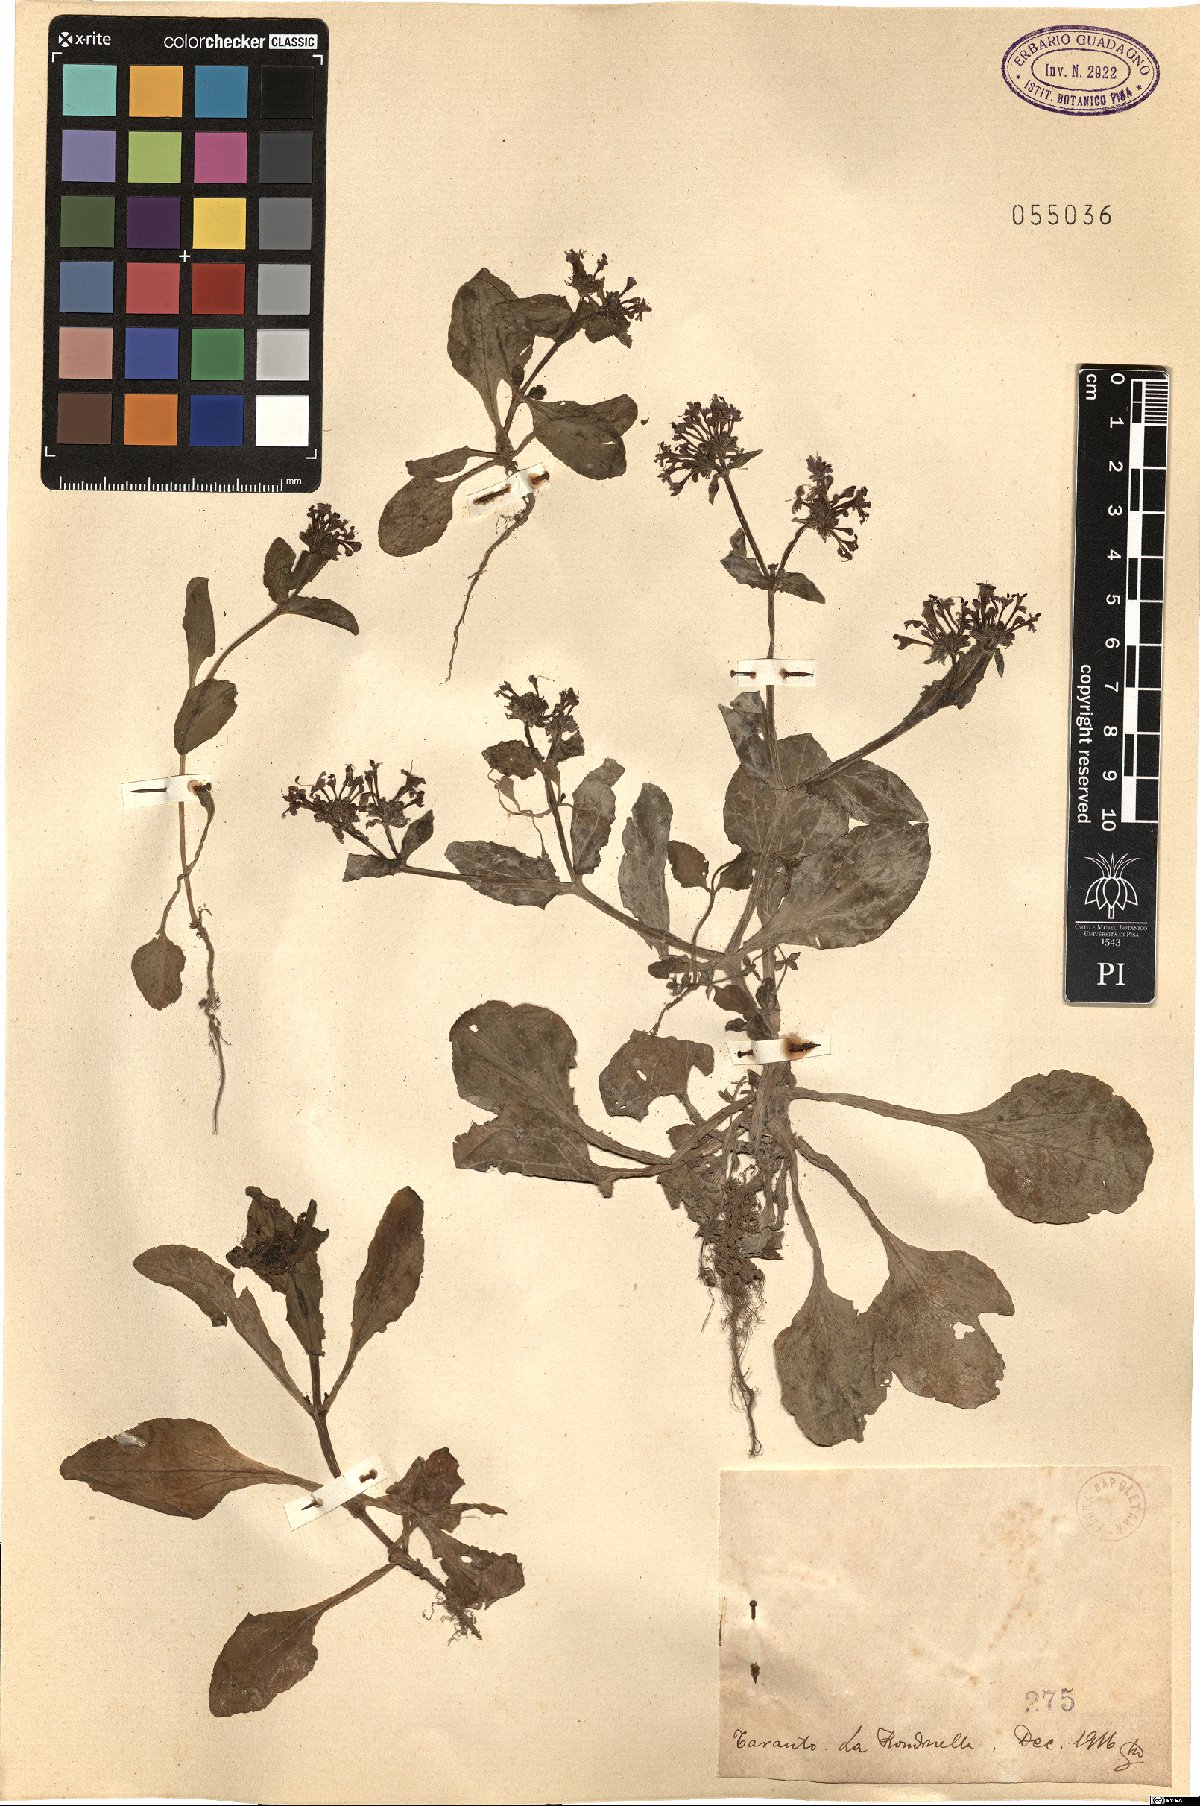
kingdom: Plantae
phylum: Tracheophyta
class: Magnoliopsida
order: Dipsacales
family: Caprifoliaceae
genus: Fedia
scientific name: Fedia
